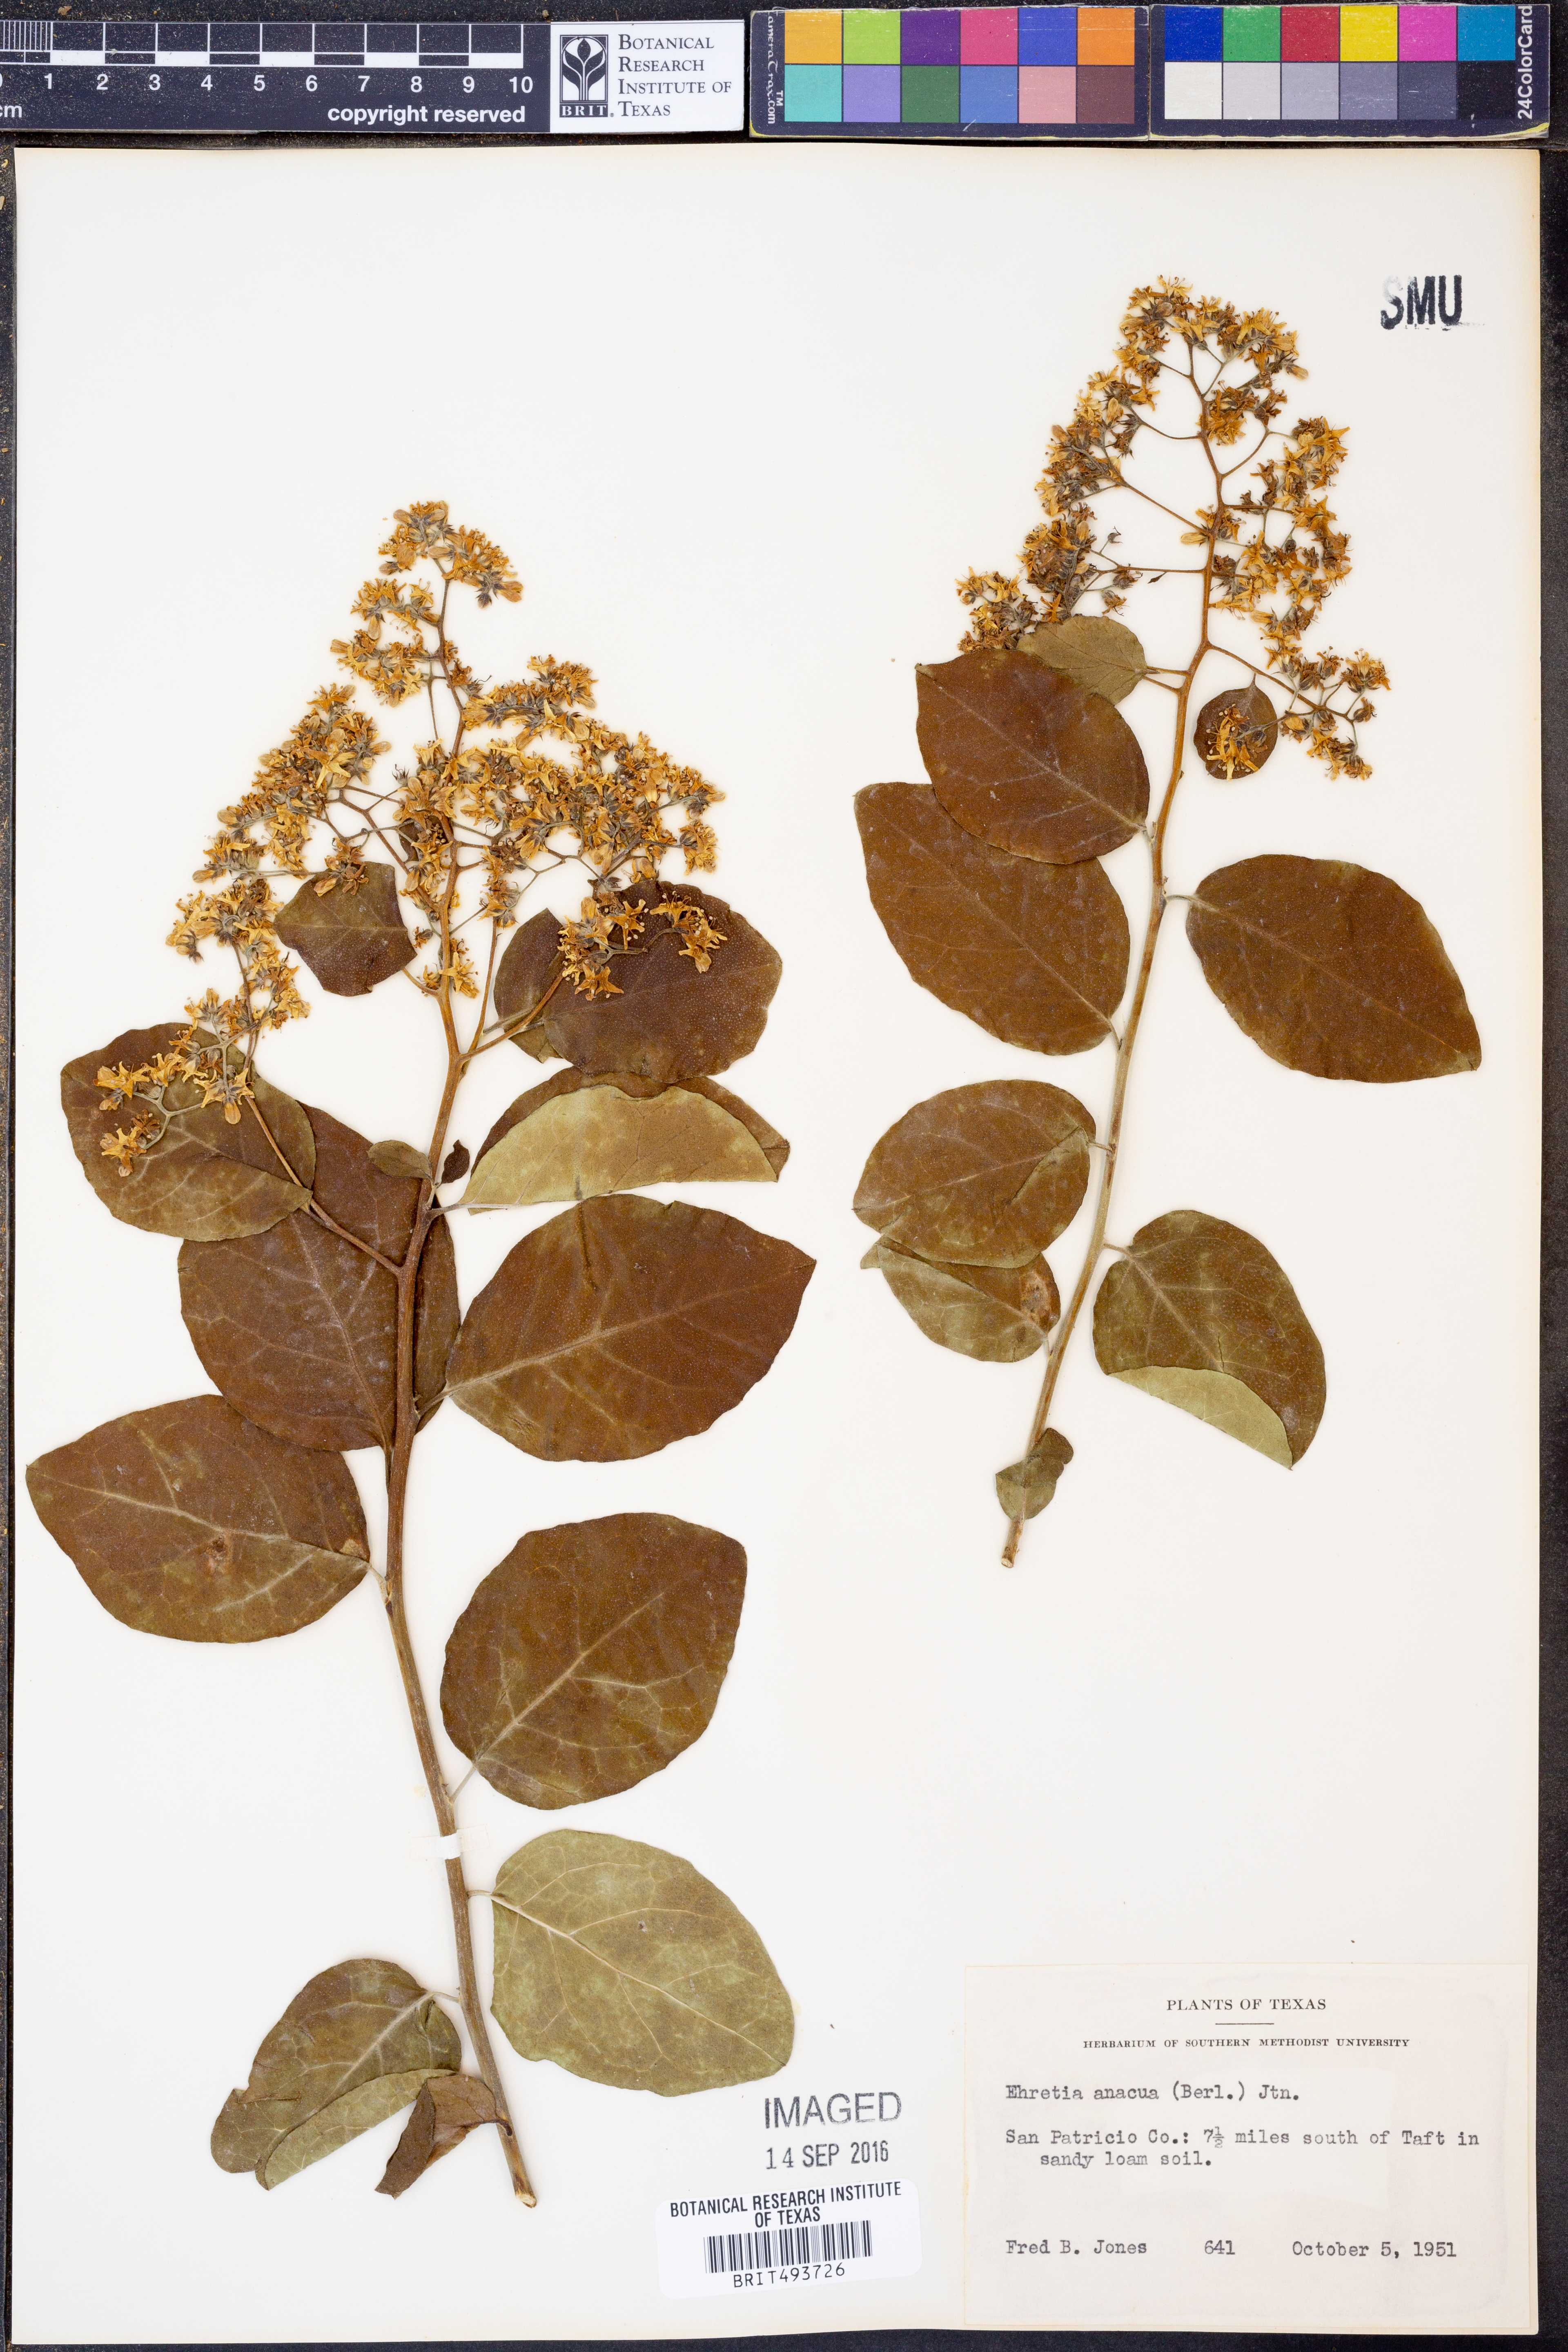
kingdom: Plantae
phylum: Tracheophyta
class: Magnoliopsida
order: Boraginales
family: Ehretiaceae
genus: Ehretia
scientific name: Ehretia anacua
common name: Sugarberry
